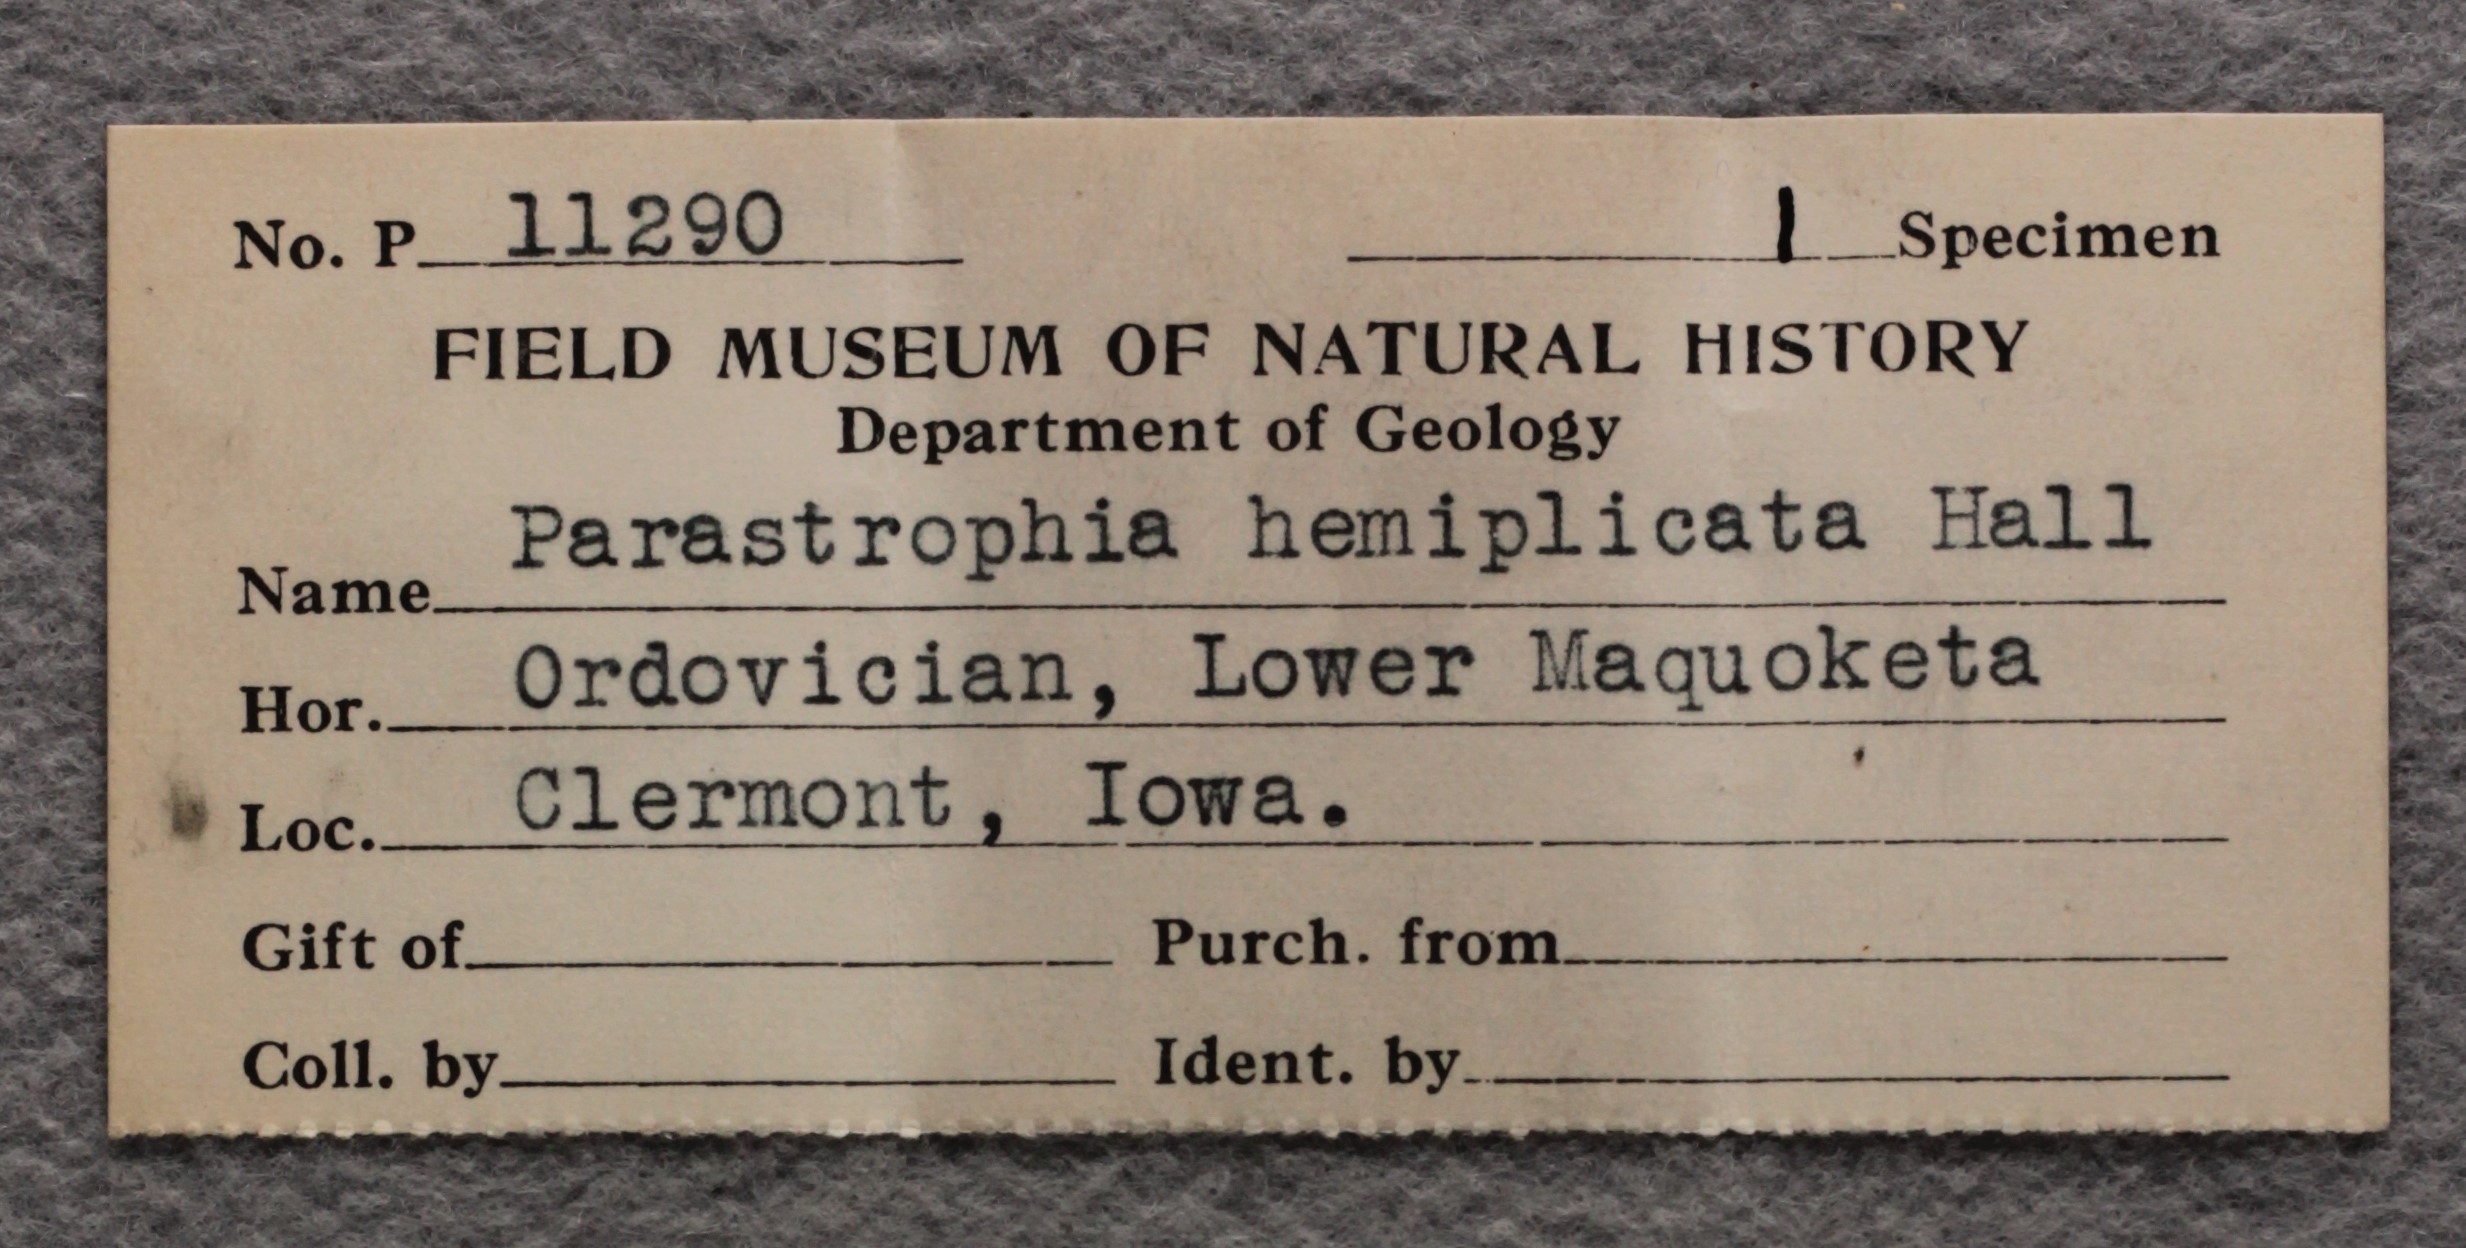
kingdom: Animalia
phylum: Brachiopoda
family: Strophomenidae
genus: Strophomena
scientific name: Strophomena
